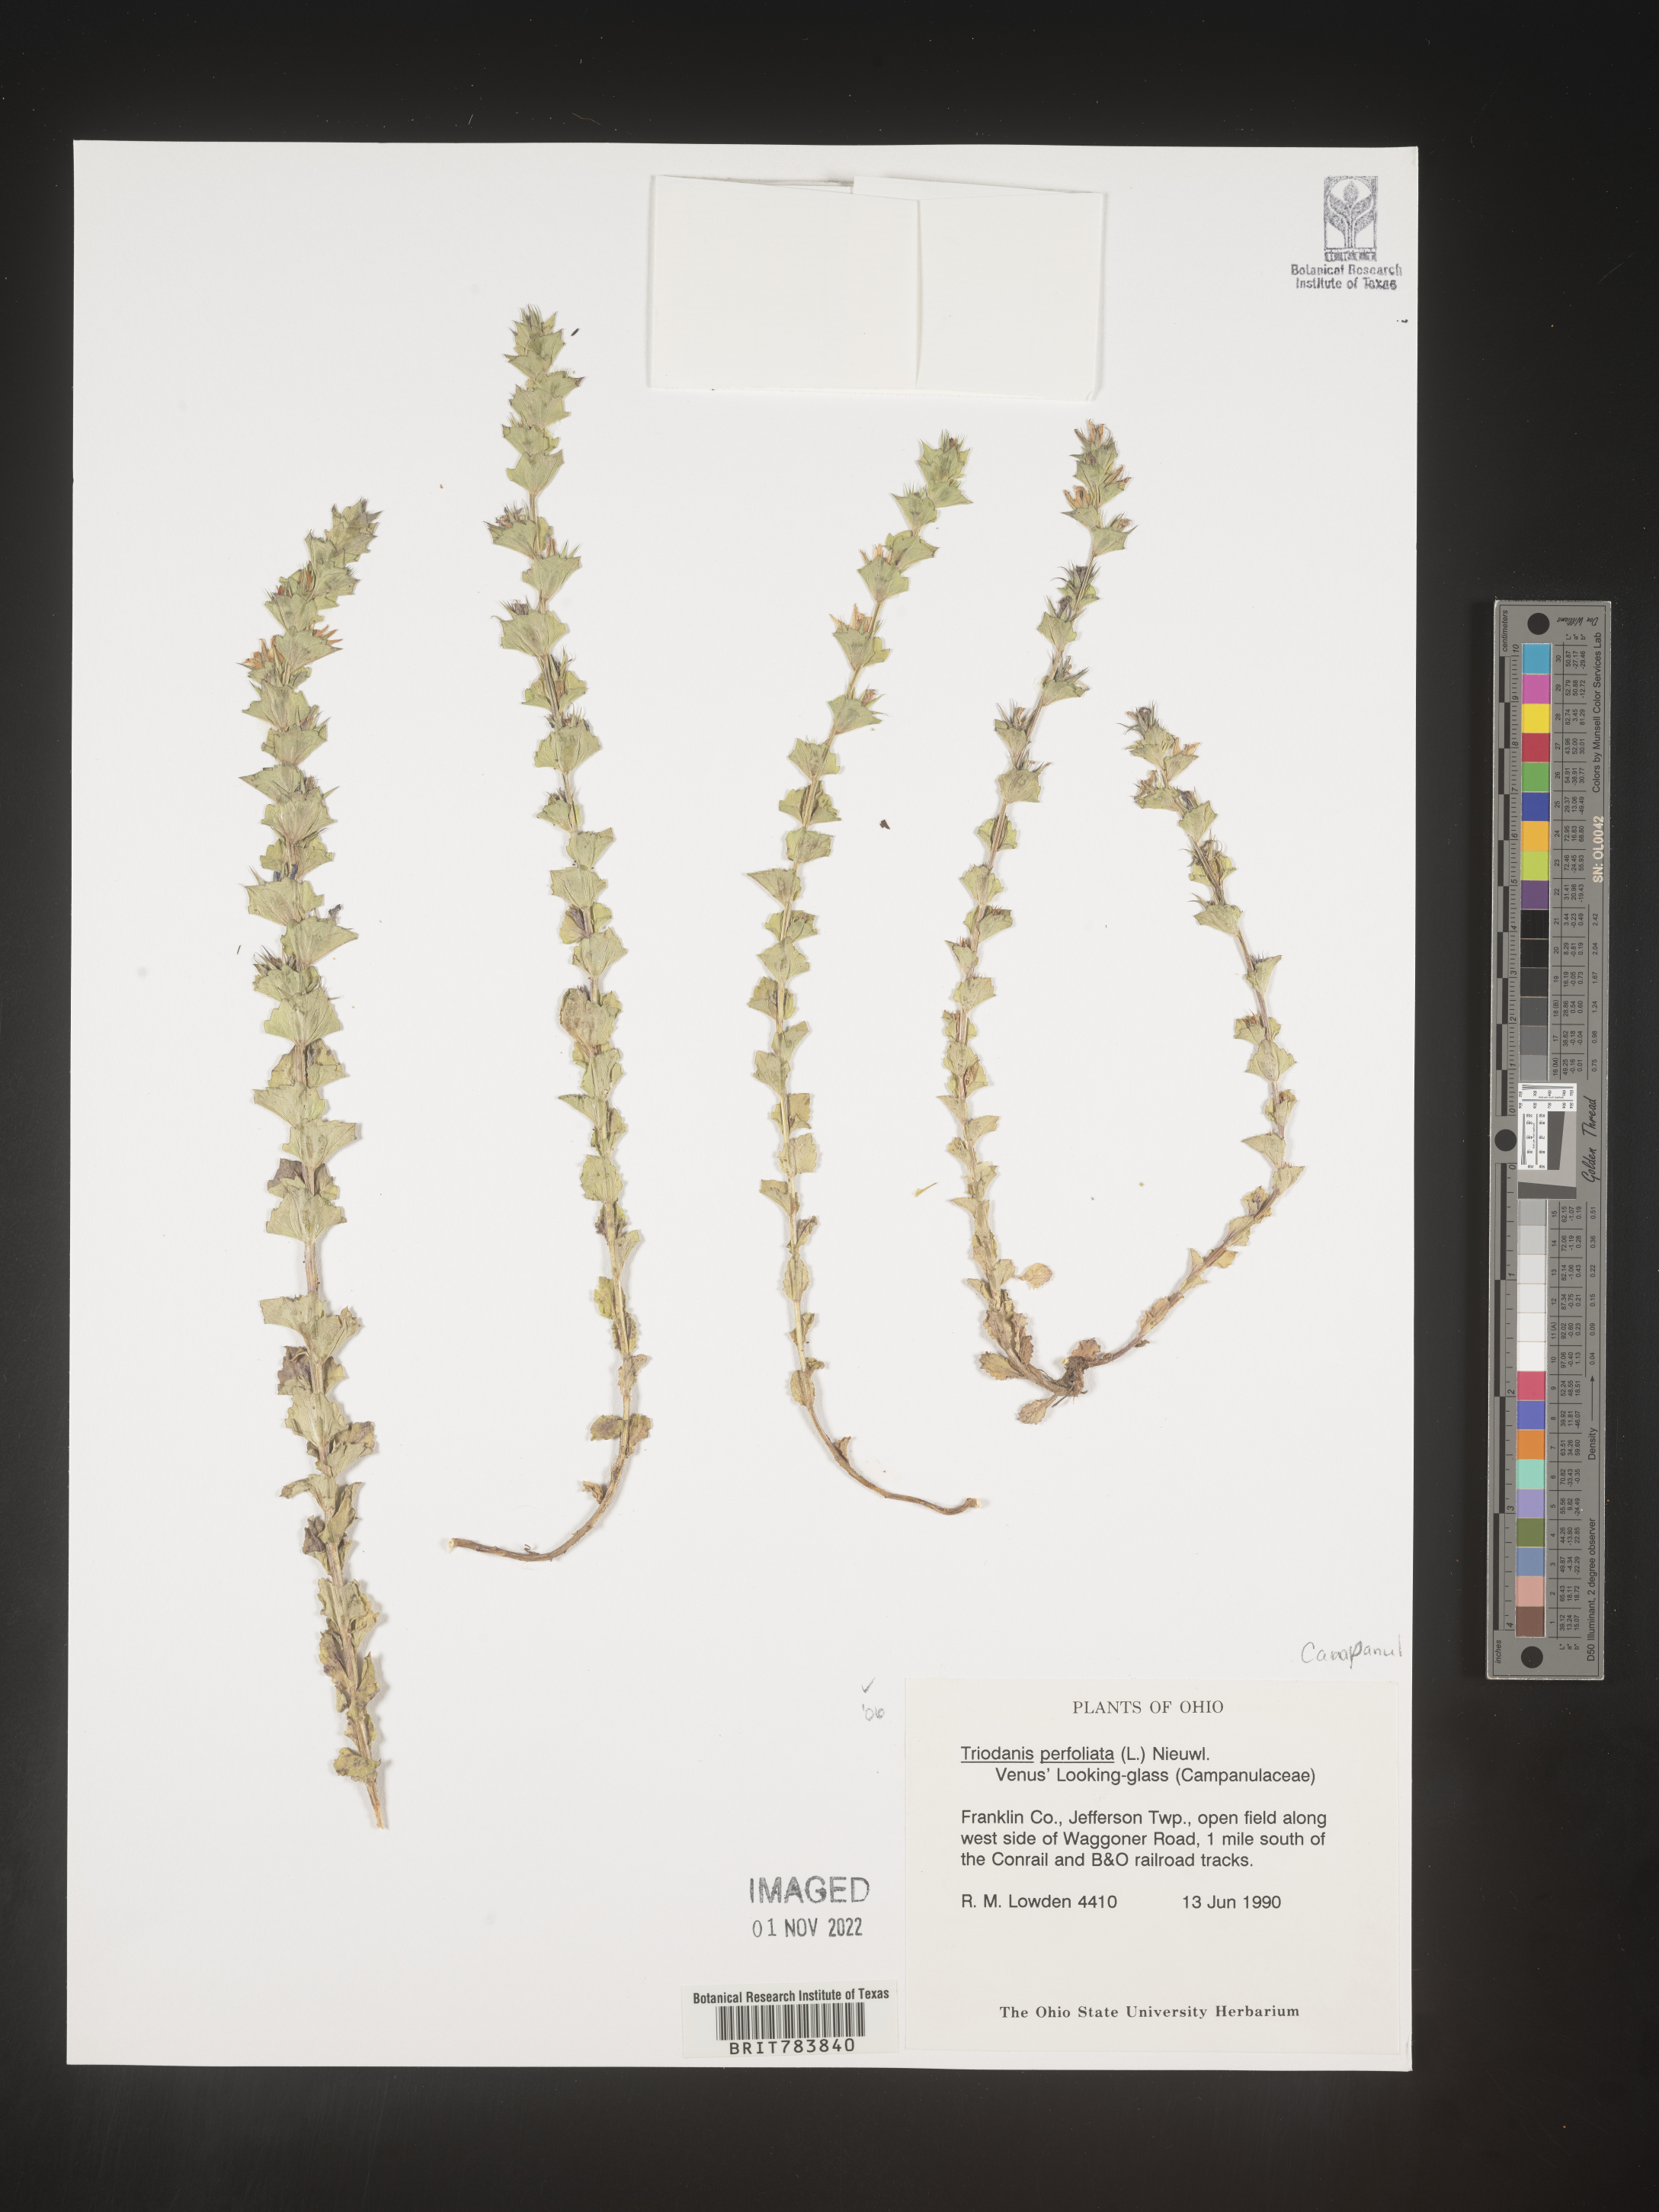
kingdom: Plantae
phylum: Tracheophyta
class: Magnoliopsida
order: Asterales
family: Campanulaceae
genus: Triodanis
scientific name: Triodanis perfoliata
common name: Clasping venus' looking-glass
